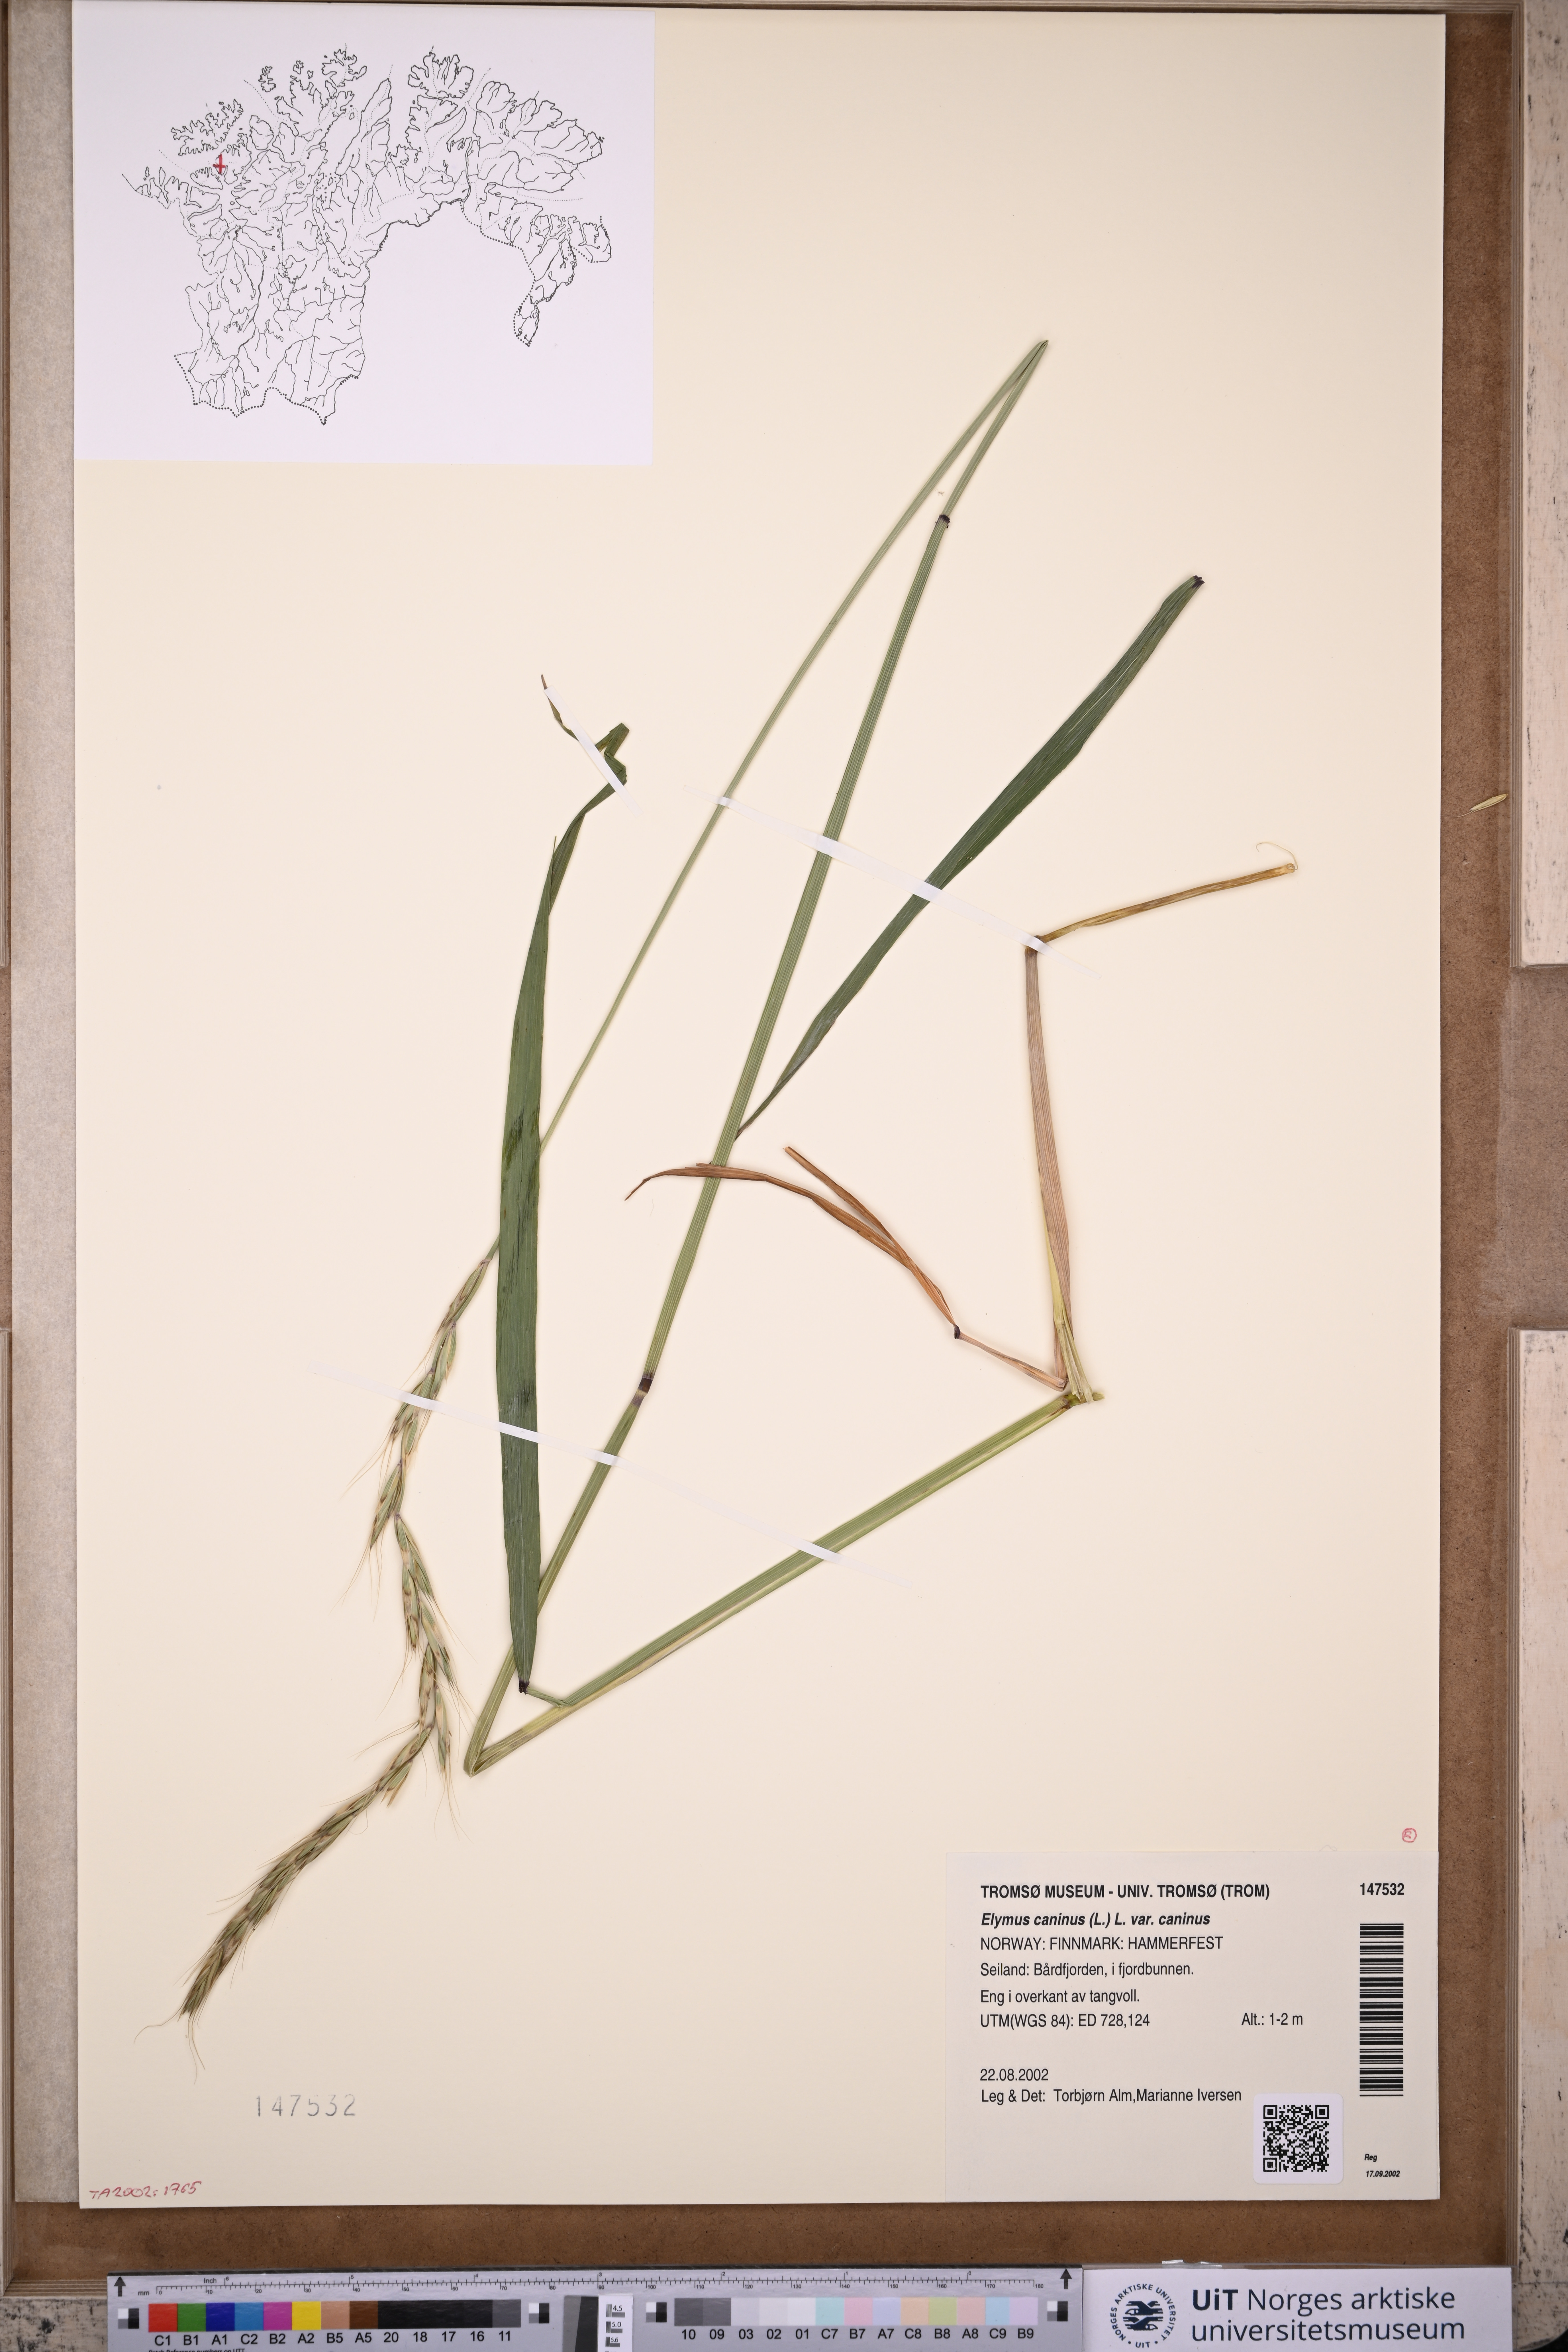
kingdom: Plantae
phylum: Tracheophyta
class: Liliopsida
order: Poales
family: Poaceae
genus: Elymus
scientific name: Elymus caninus
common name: Bearded couch
